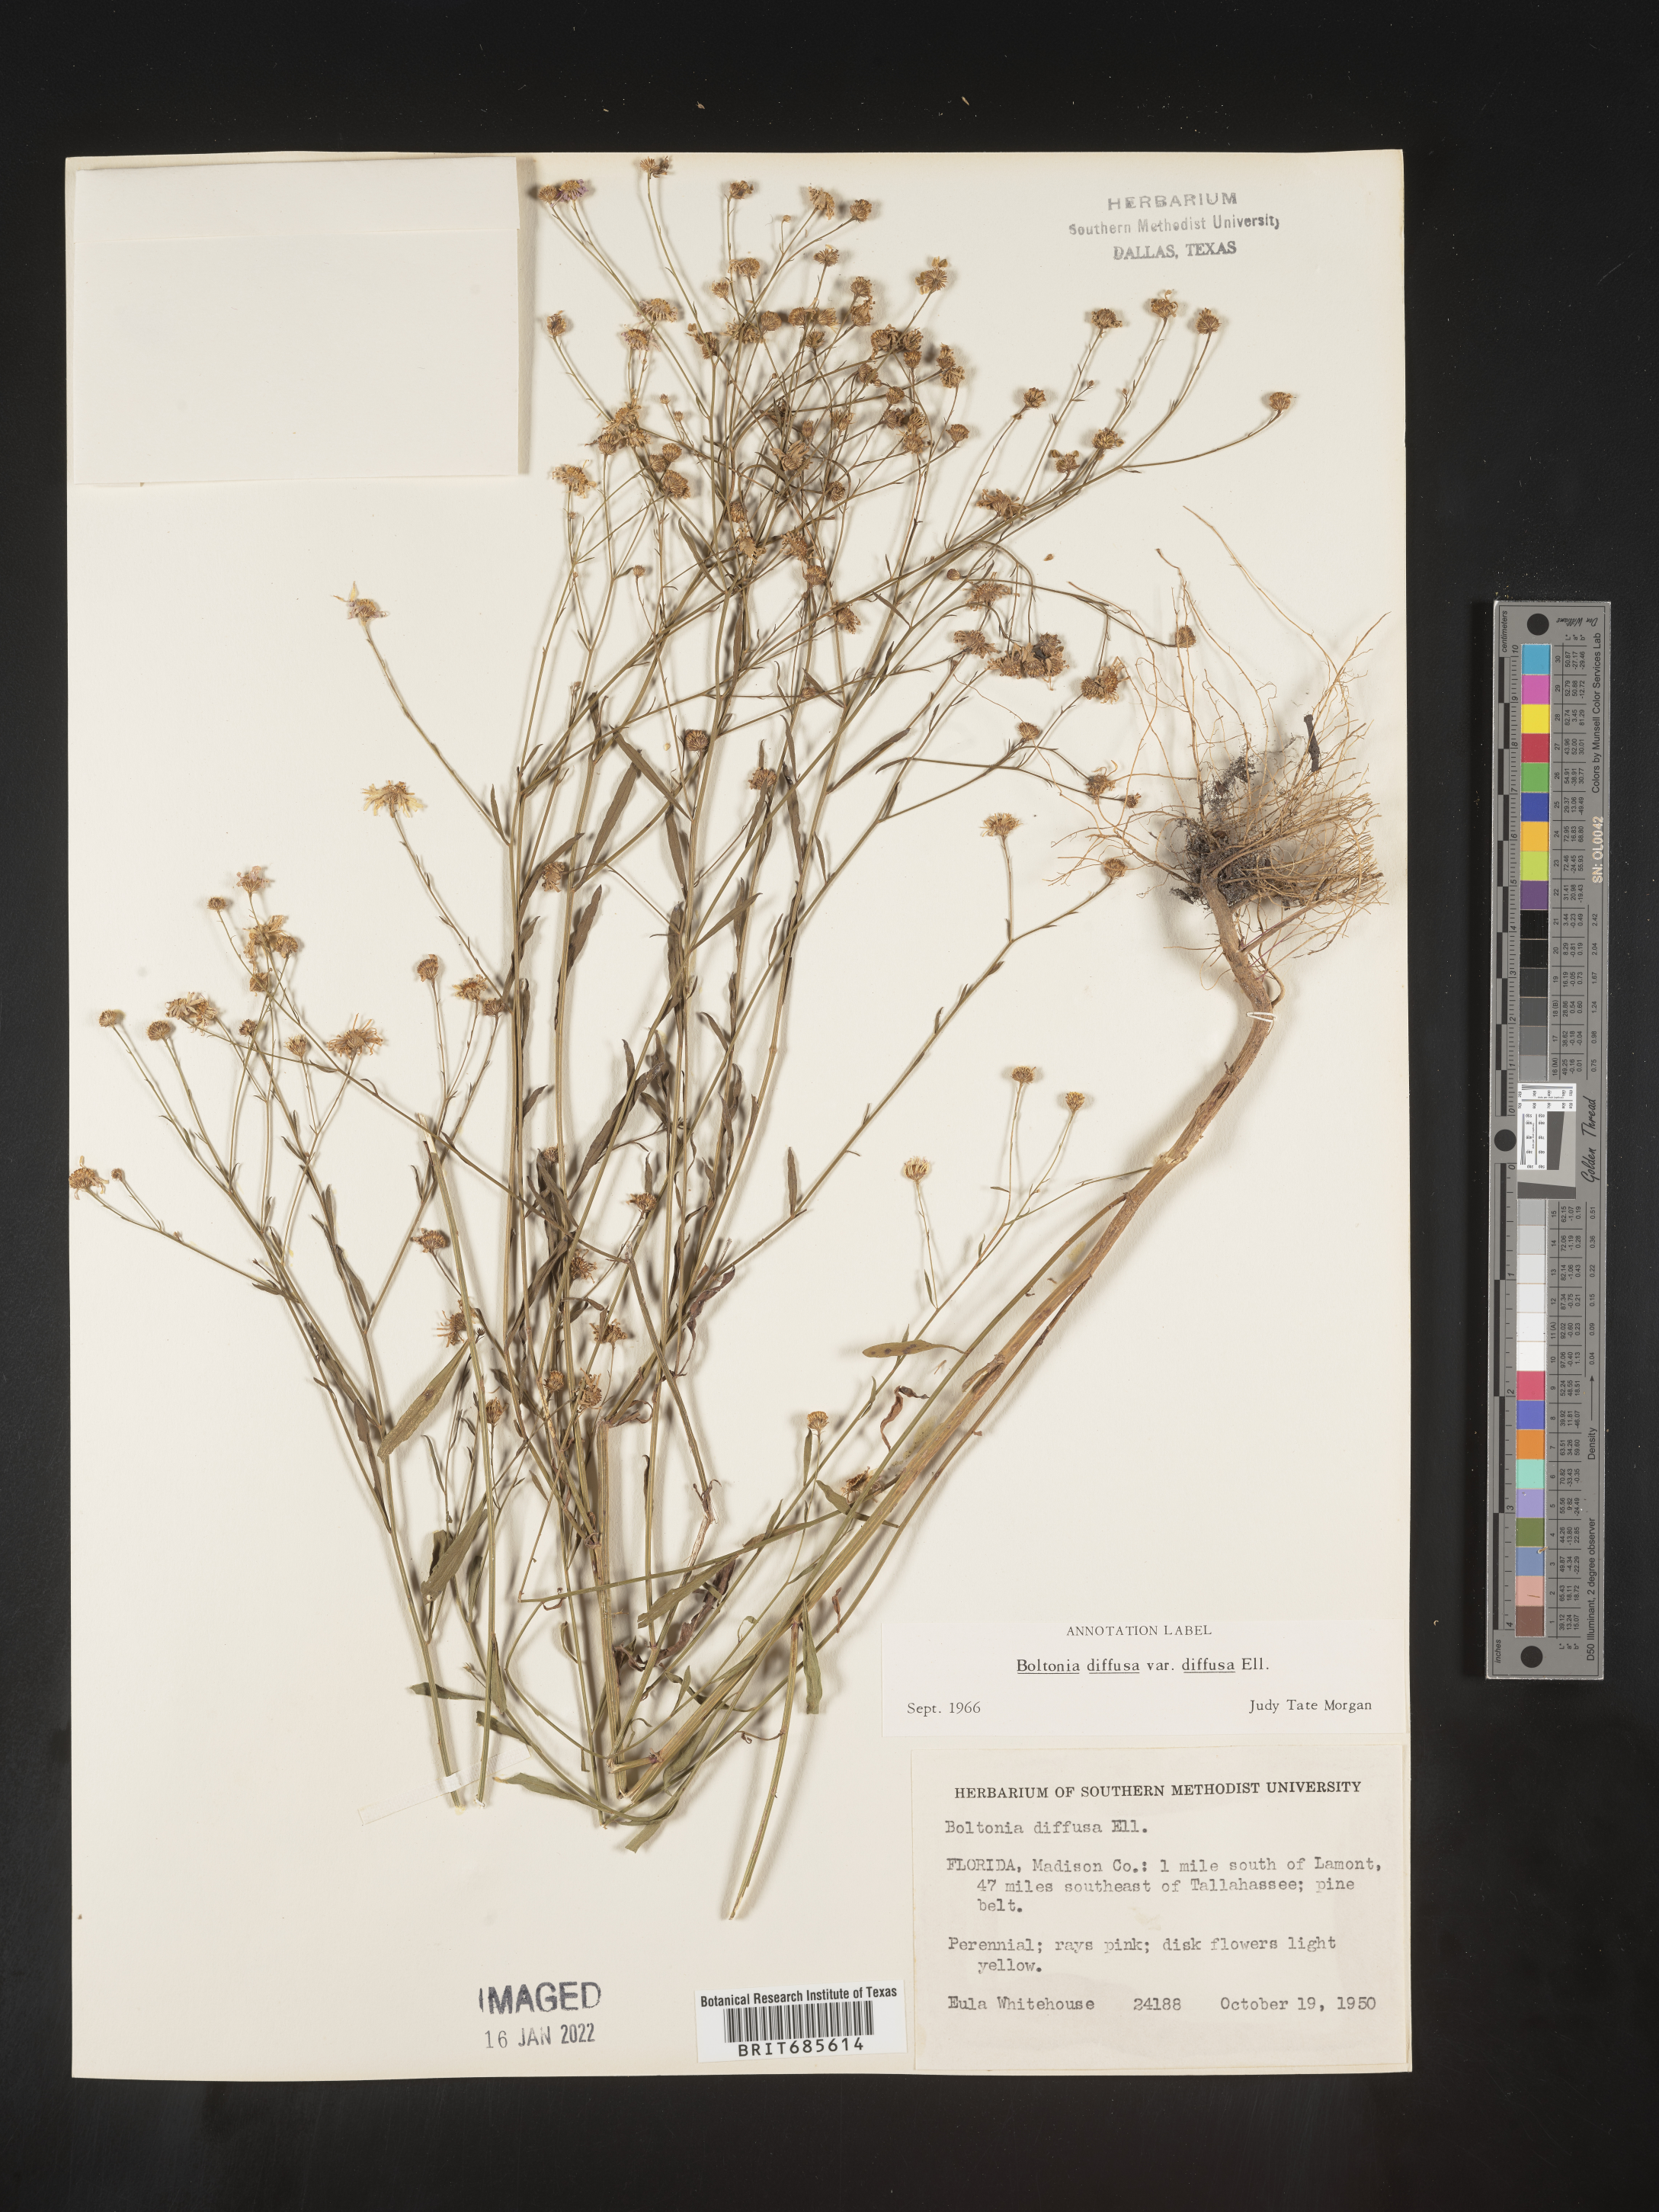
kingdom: Plantae
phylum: Tracheophyta
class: Magnoliopsida
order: Asterales
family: Asteraceae
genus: Boltonia
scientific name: Boltonia diffusa
